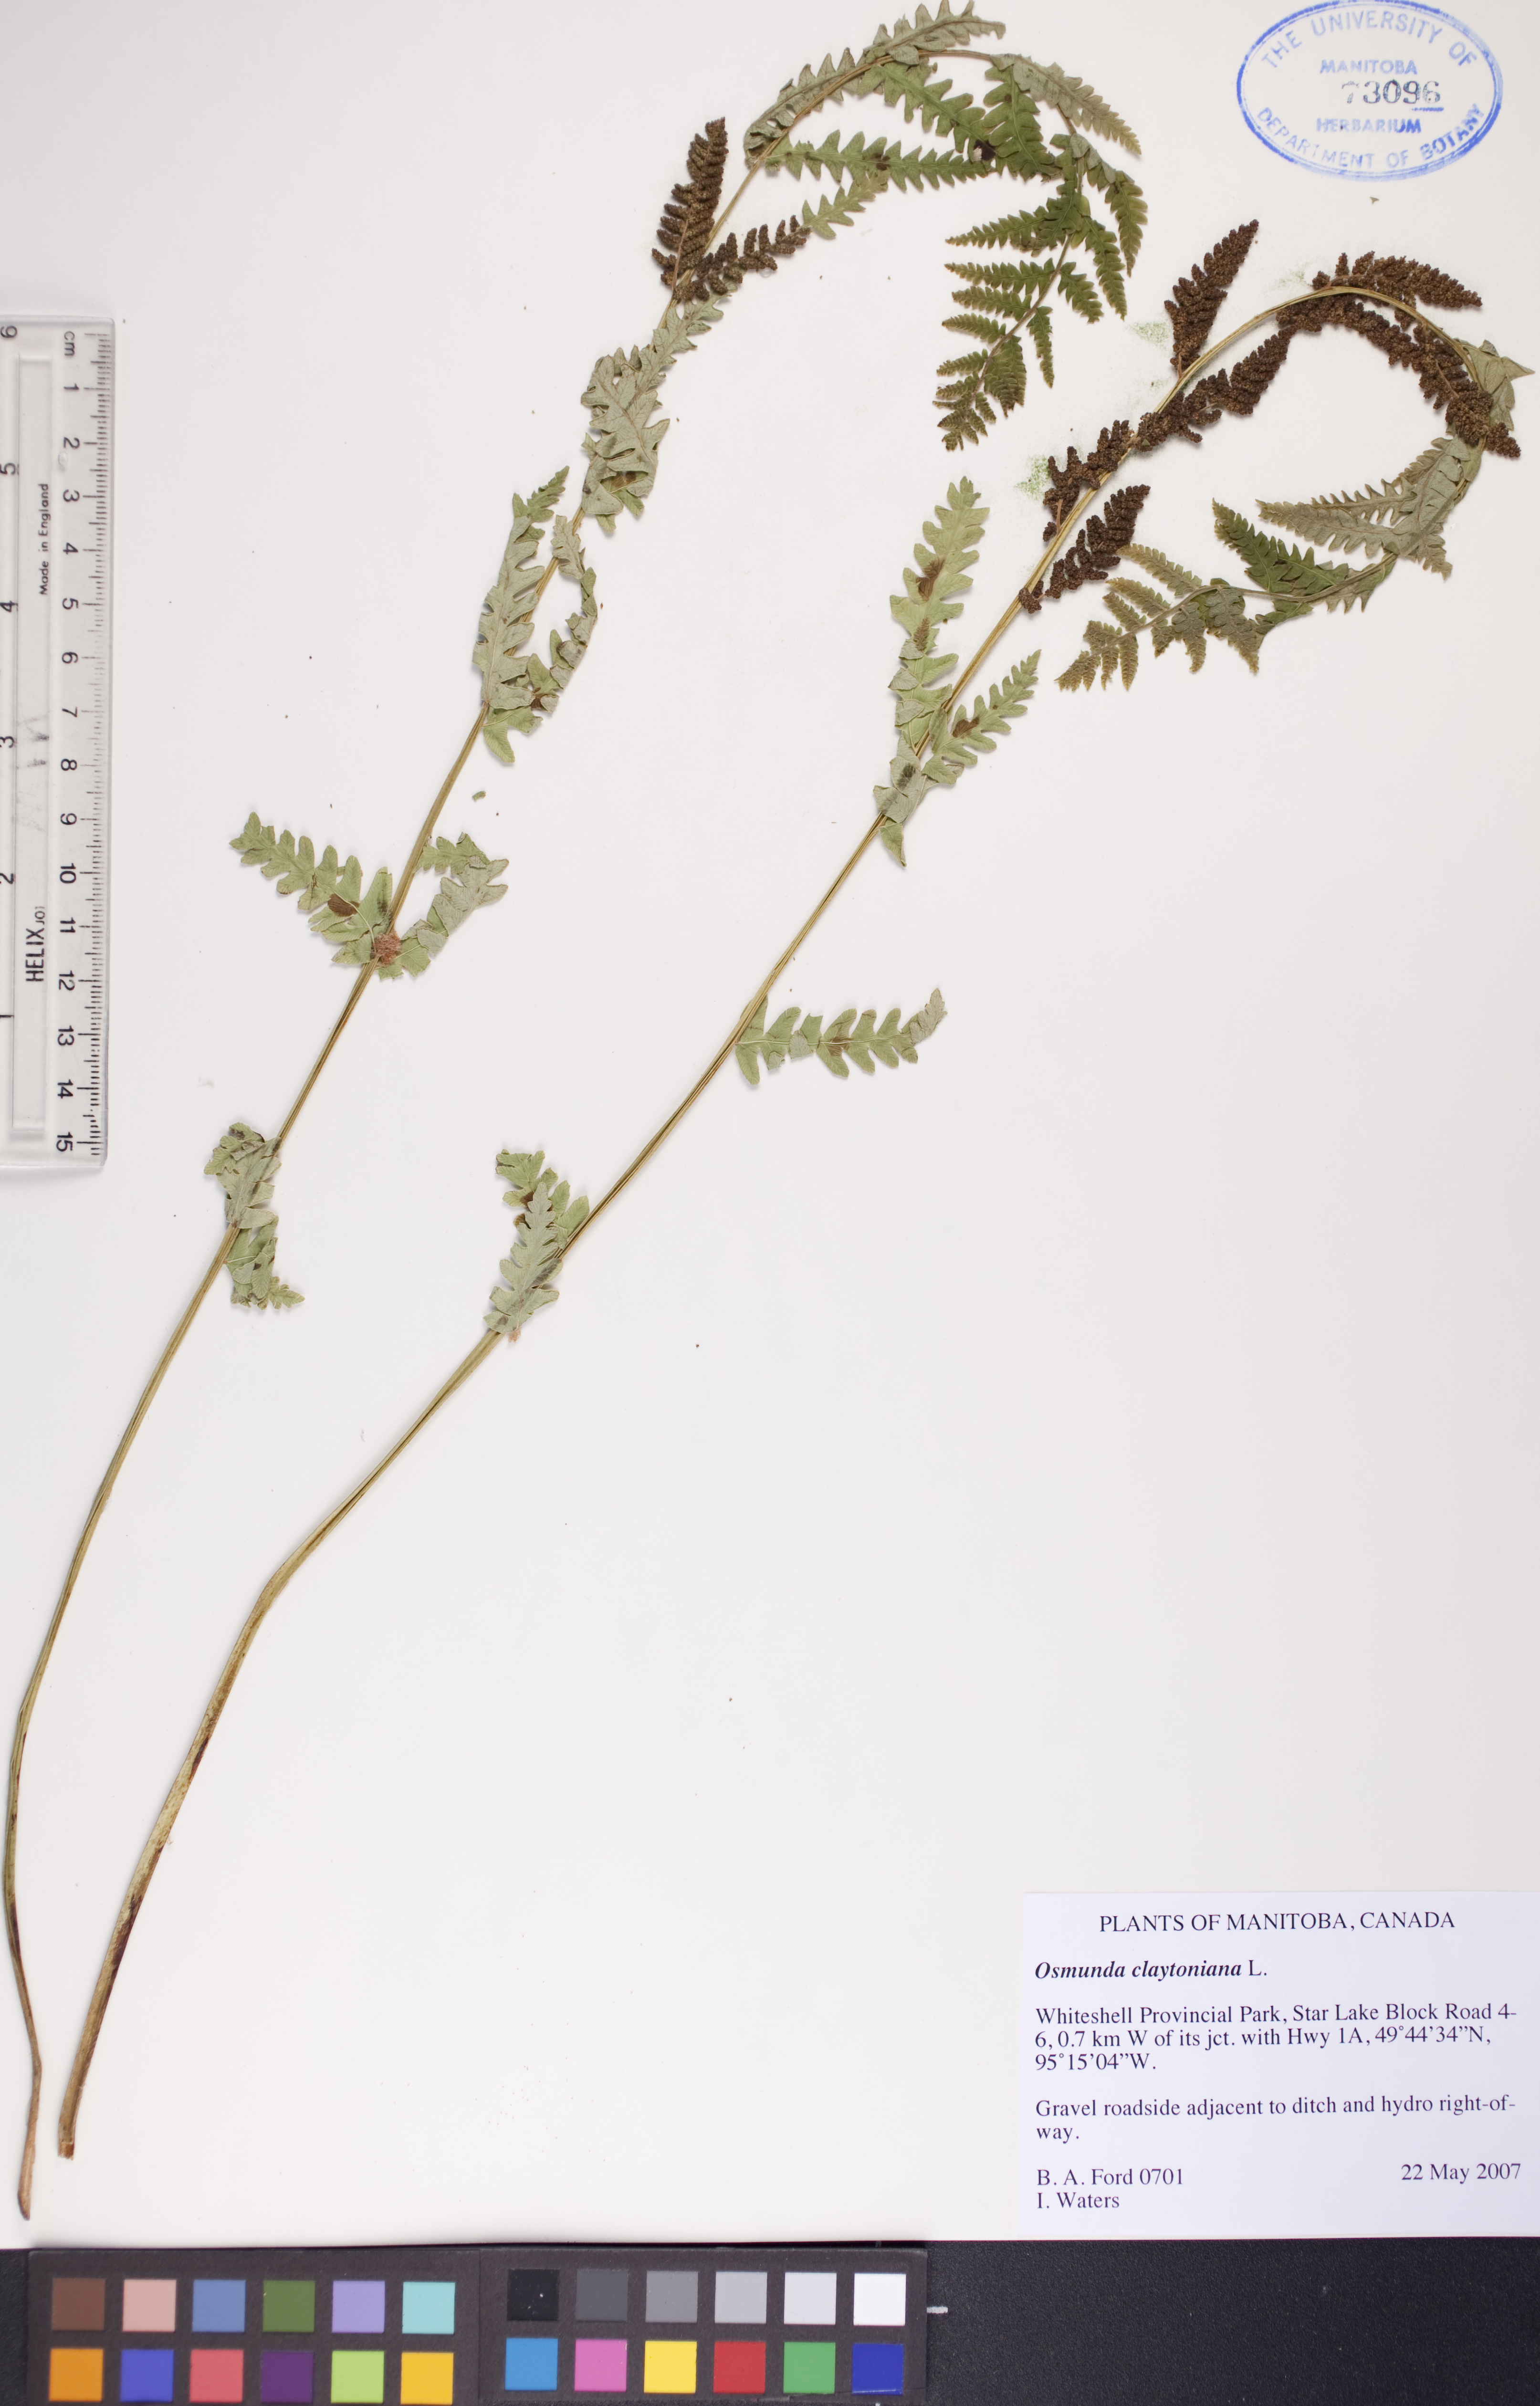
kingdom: Plantae
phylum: Tracheophyta
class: Polypodiopsida
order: Osmundales
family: Osmundaceae
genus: Claytosmunda
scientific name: Claytosmunda claytoniana
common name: Clayton's fern
